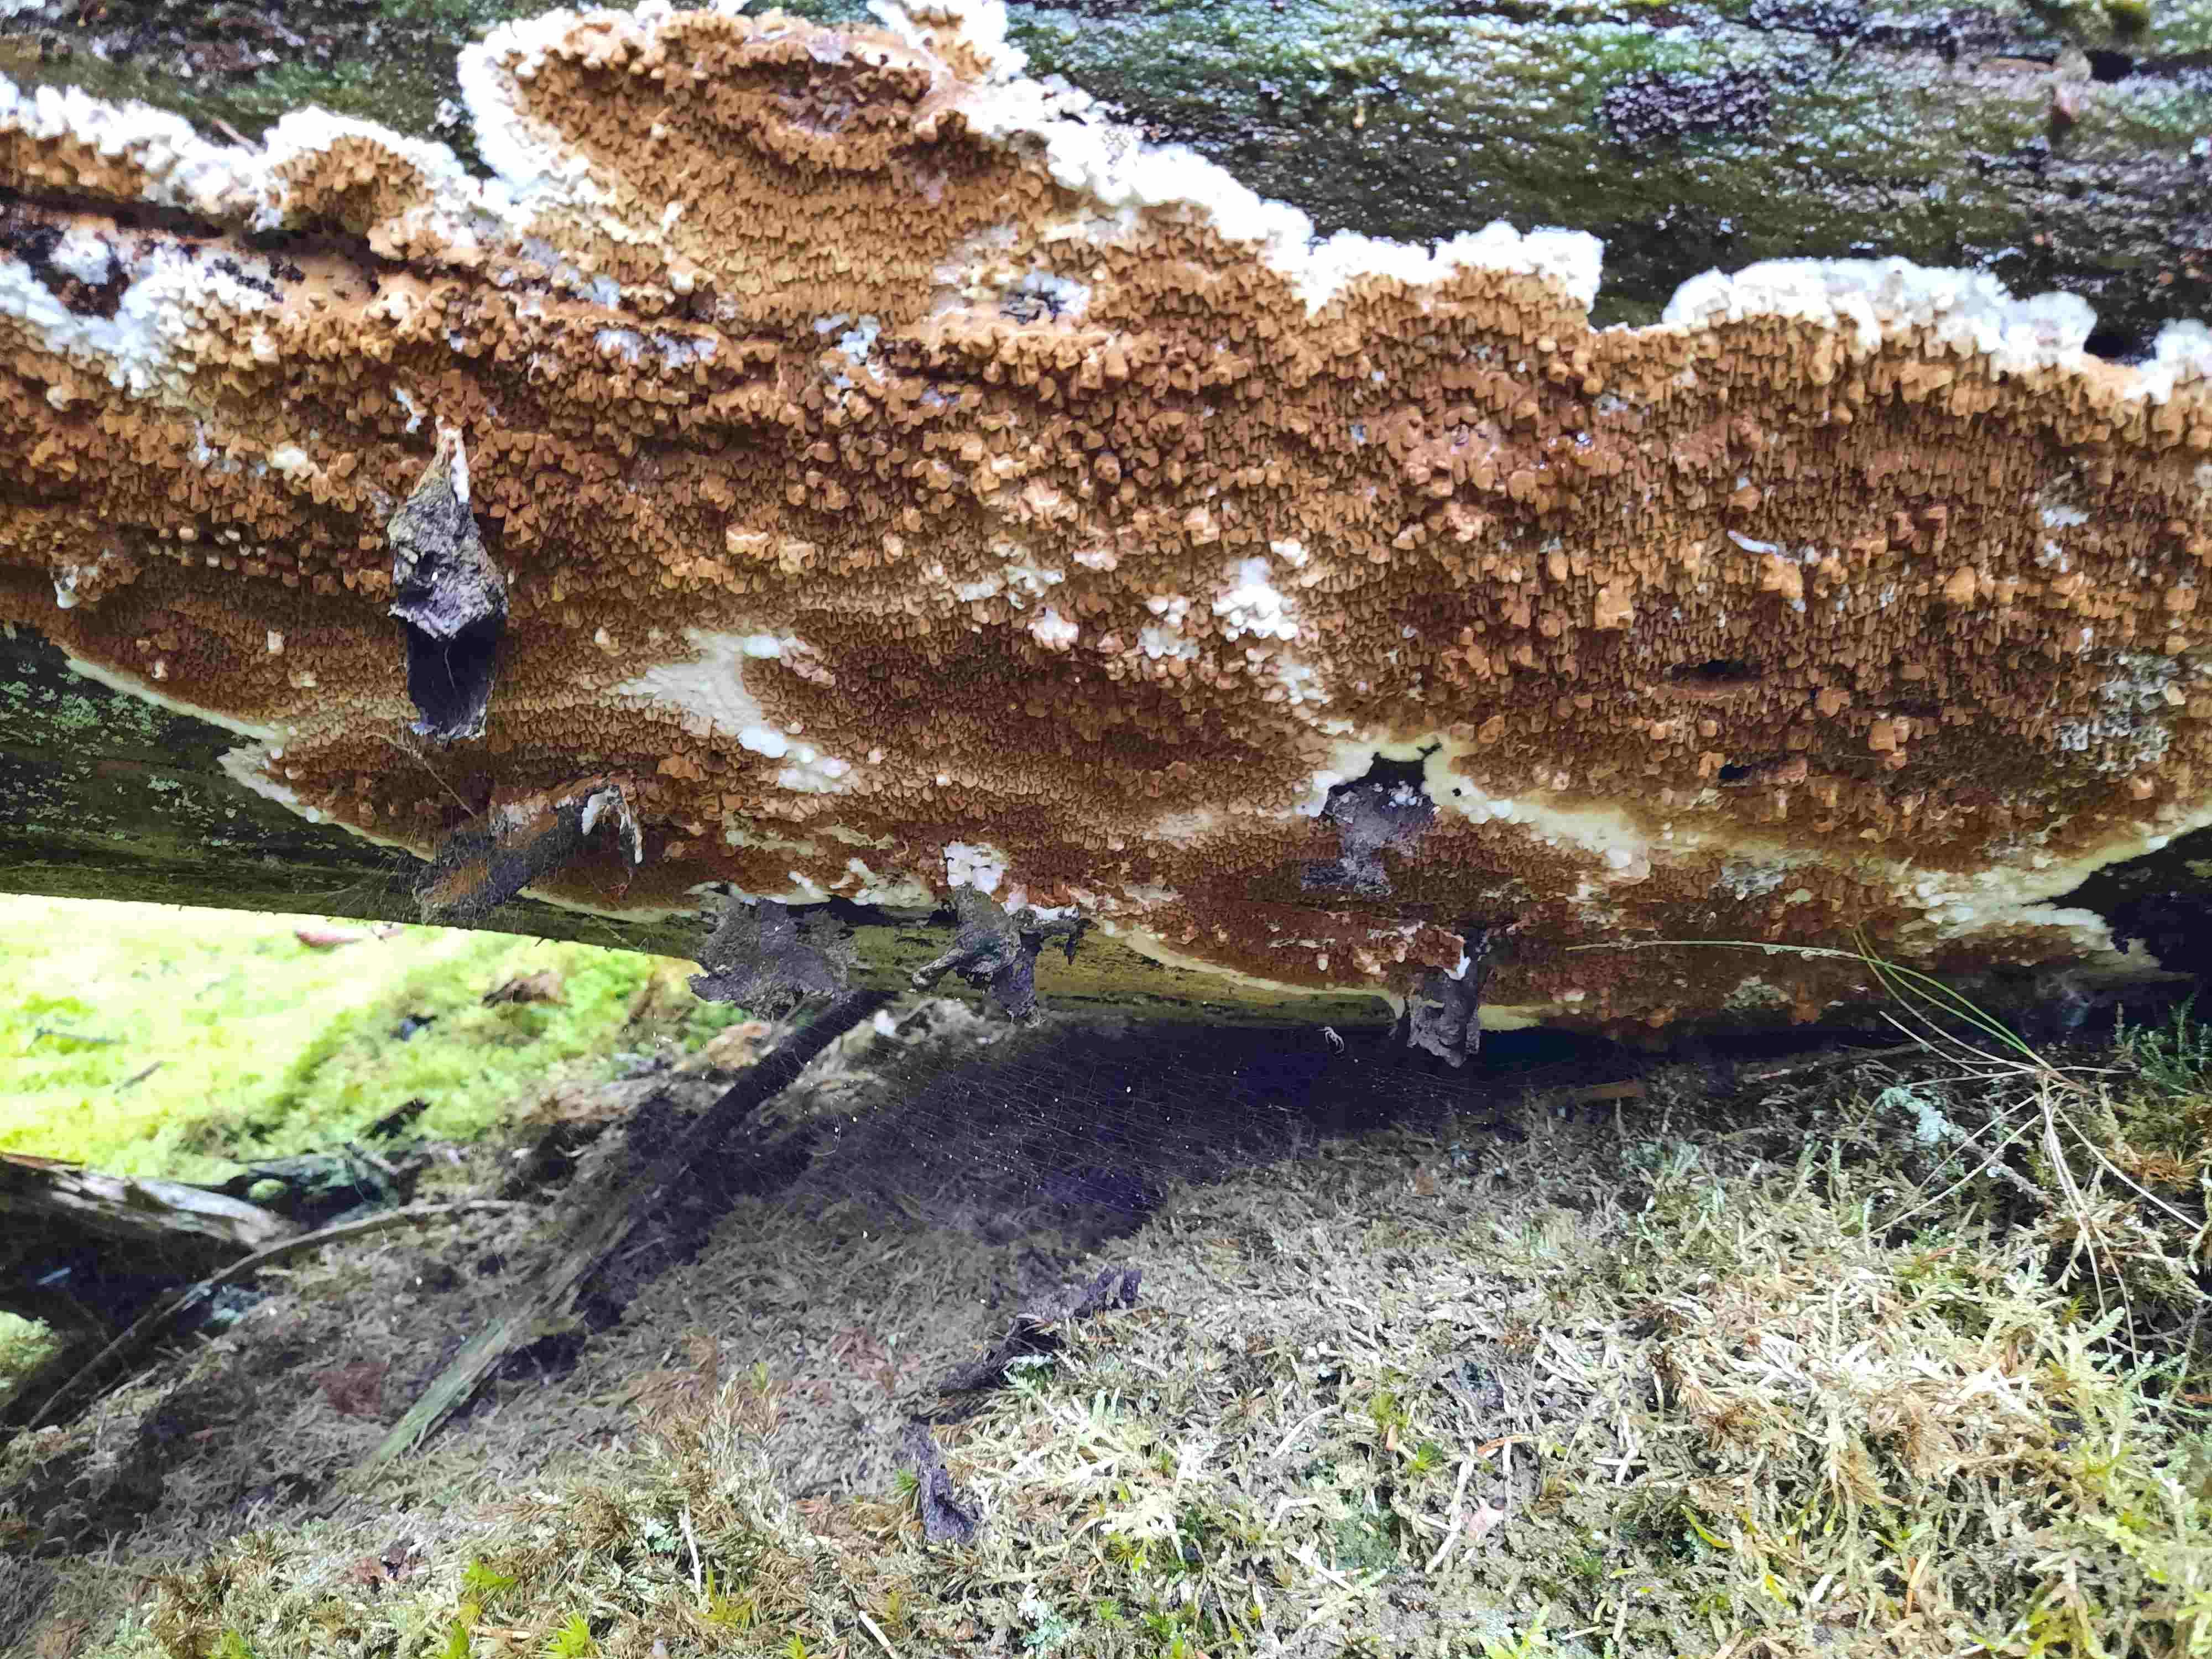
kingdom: Fungi
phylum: Basidiomycota
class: Agaricomycetes
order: Boletales
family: Serpulaceae
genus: Serpula
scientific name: Serpula himantioides
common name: tyndkødet hussvamp
